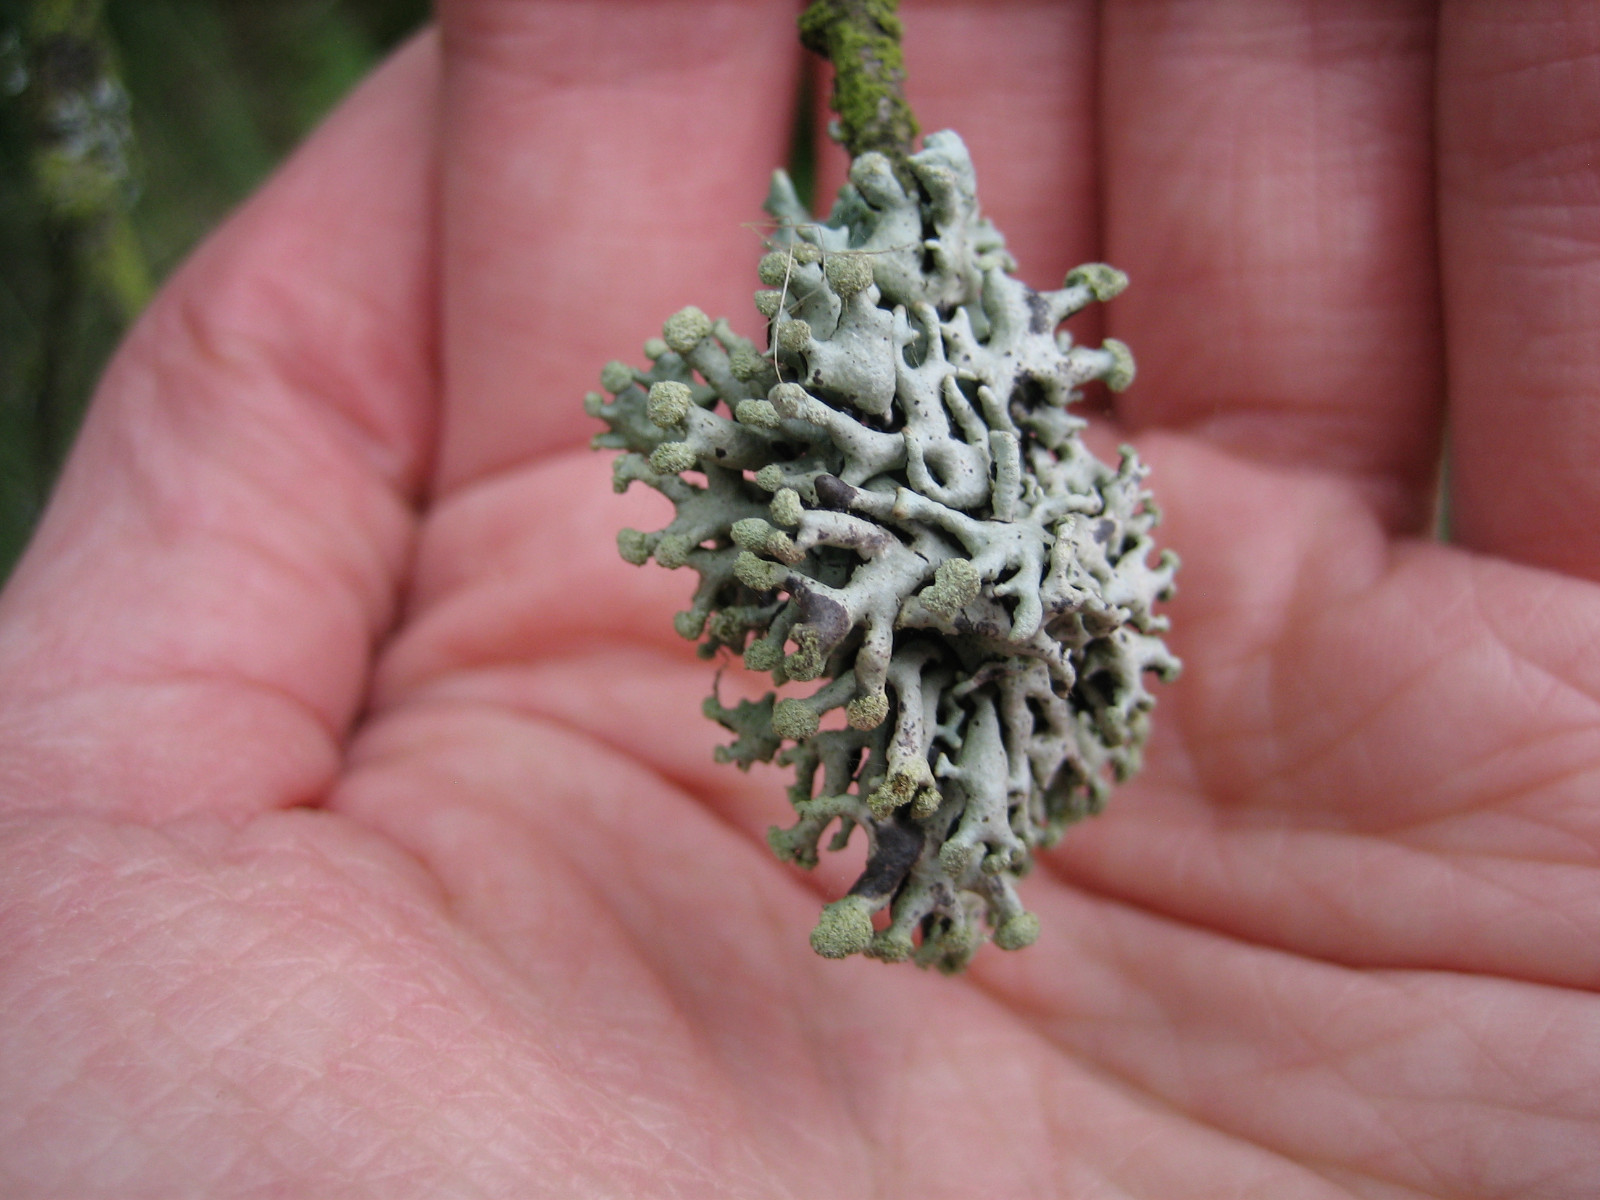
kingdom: Fungi
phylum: Ascomycota
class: Lecanoromycetes
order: Lecanorales
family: Parmeliaceae
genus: Hypogymnia
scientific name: Hypogymnia tubulosa
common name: finger-kvistlav
